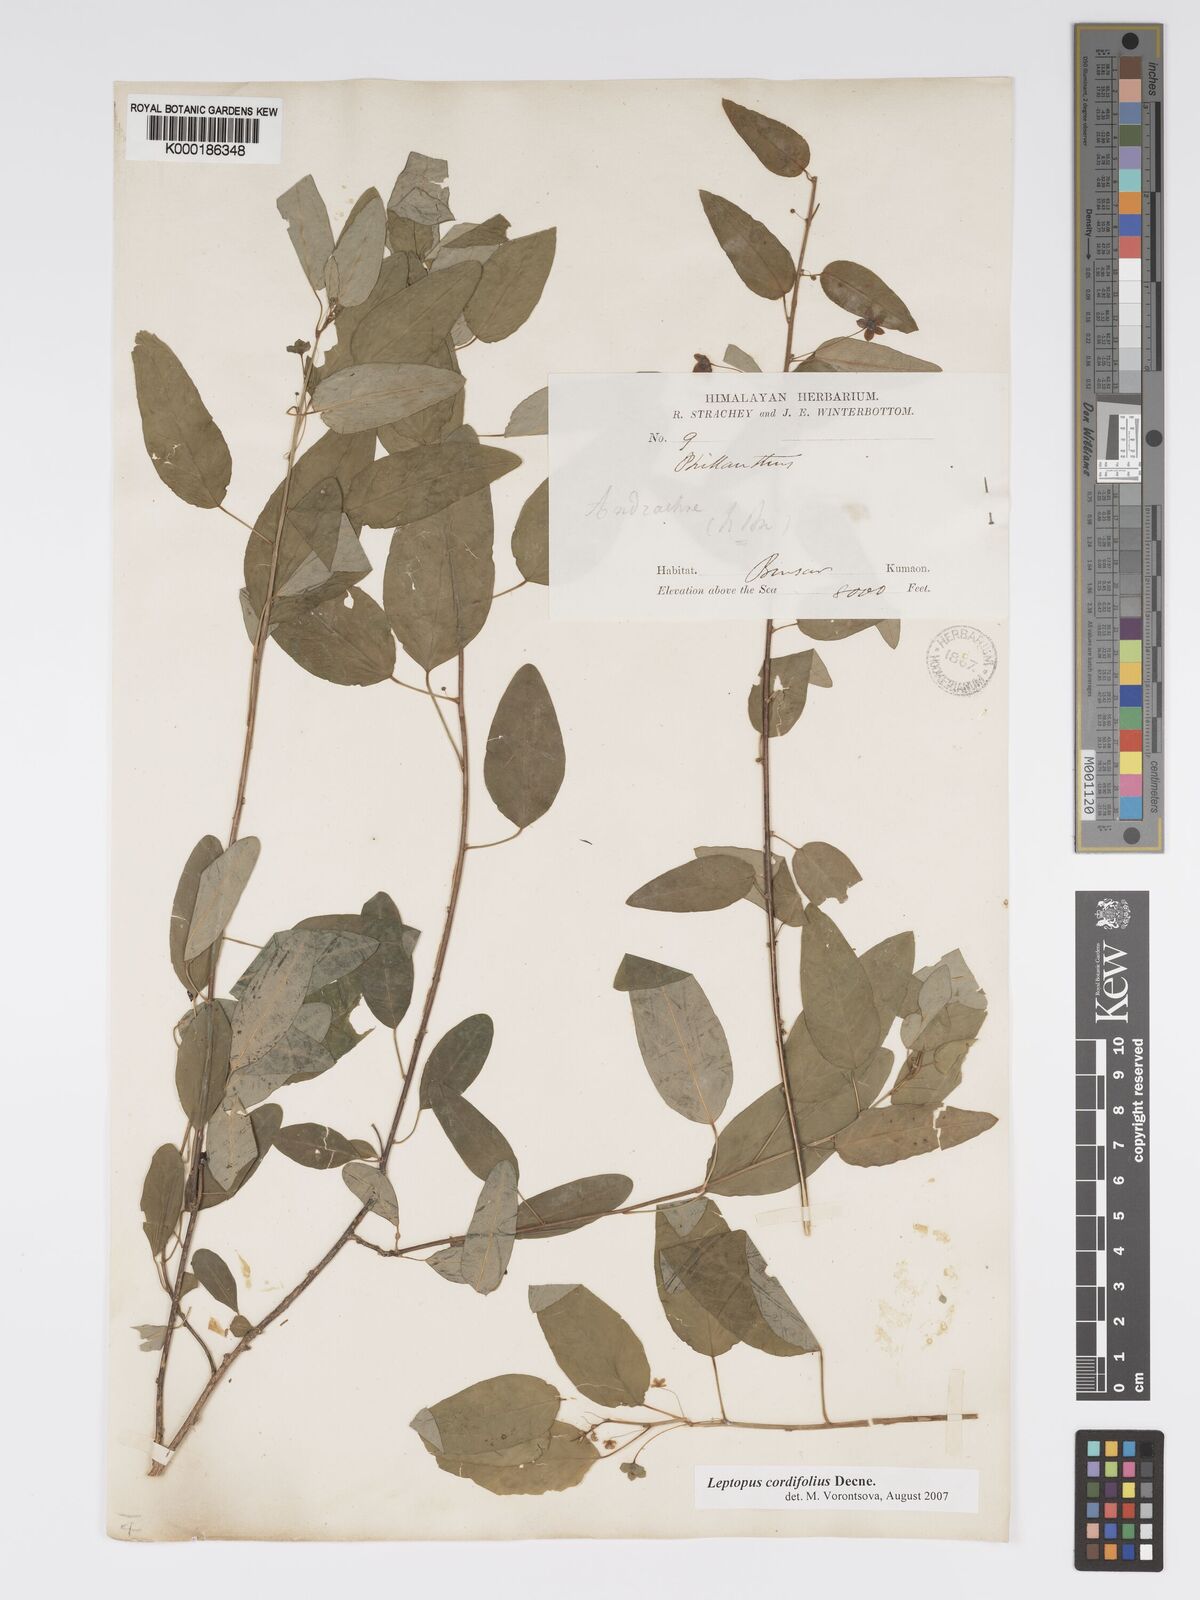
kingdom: Plantae
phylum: Tracheophyta
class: Magnoliopsida
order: Malpighiales
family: Phyllanthaceae
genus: Leptopus
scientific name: Leptopus cordifolius
